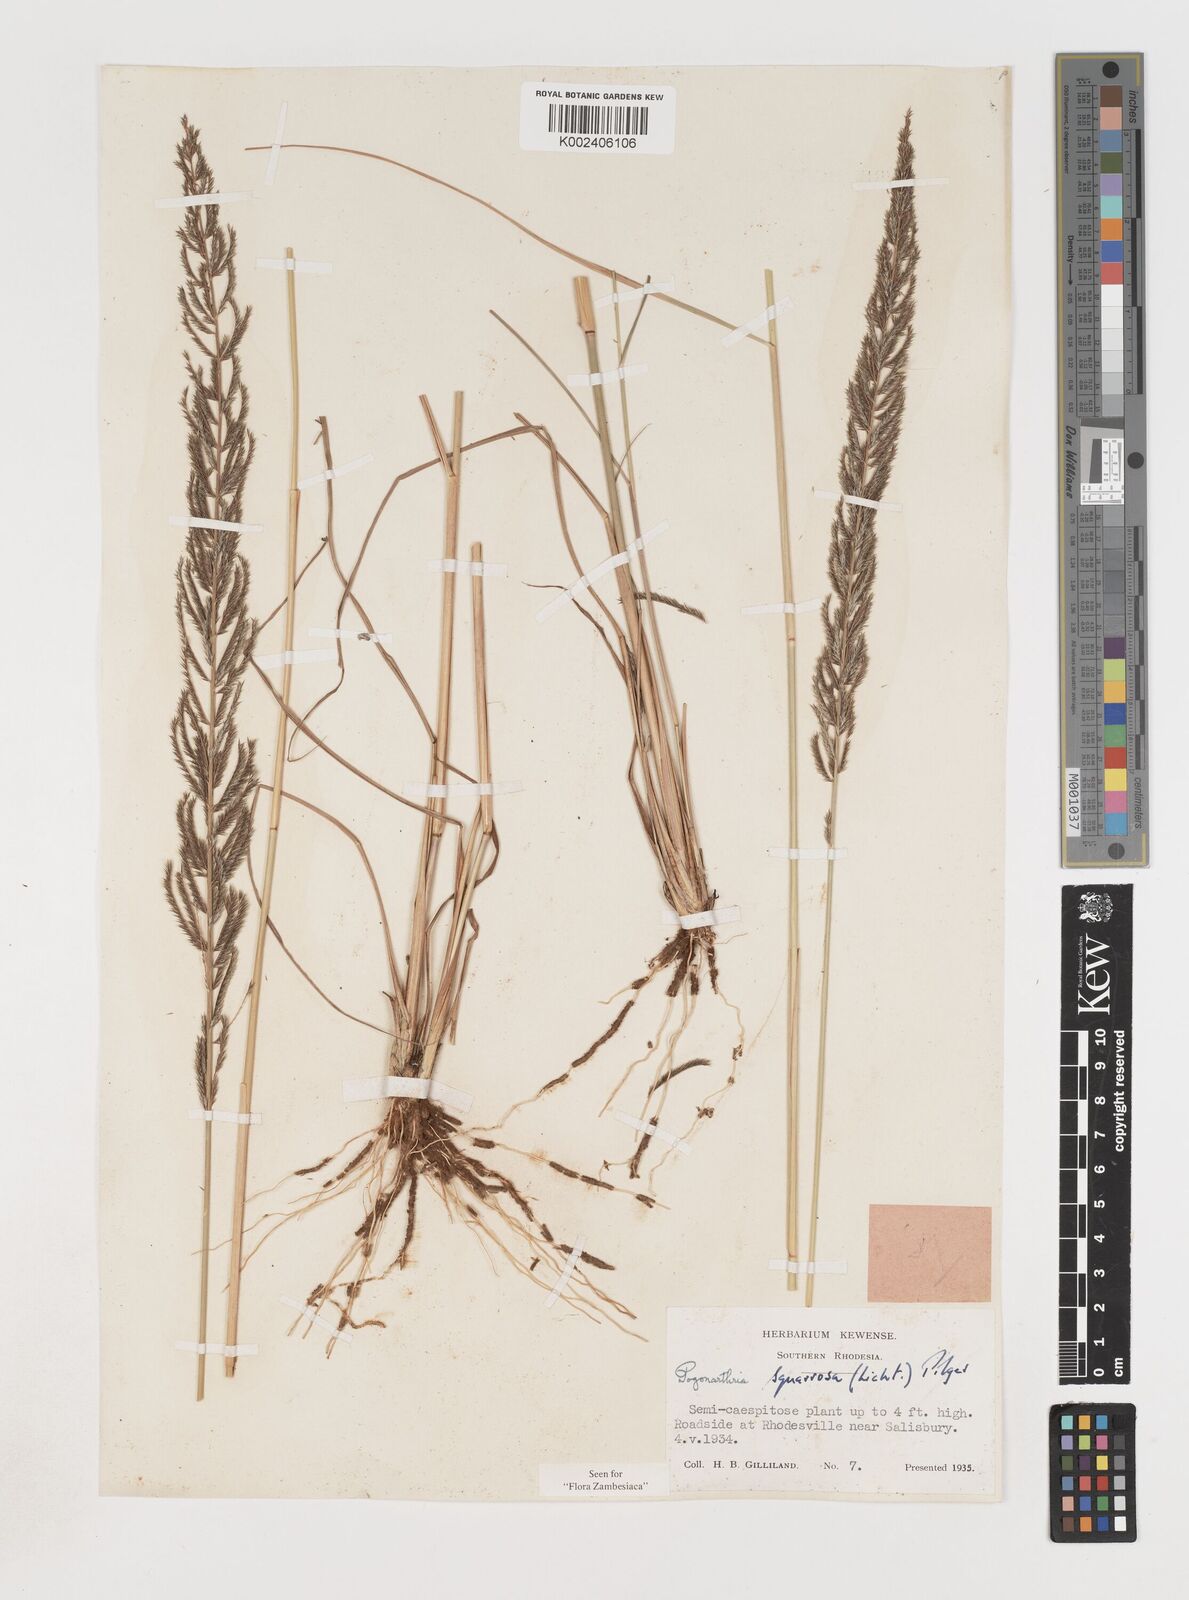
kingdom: Plantae
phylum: Tracheophyta
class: Liliopsida
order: Poales
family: Poaceae
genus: Pogonarthria
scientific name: Pogonarthria squarrosa
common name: Grass
